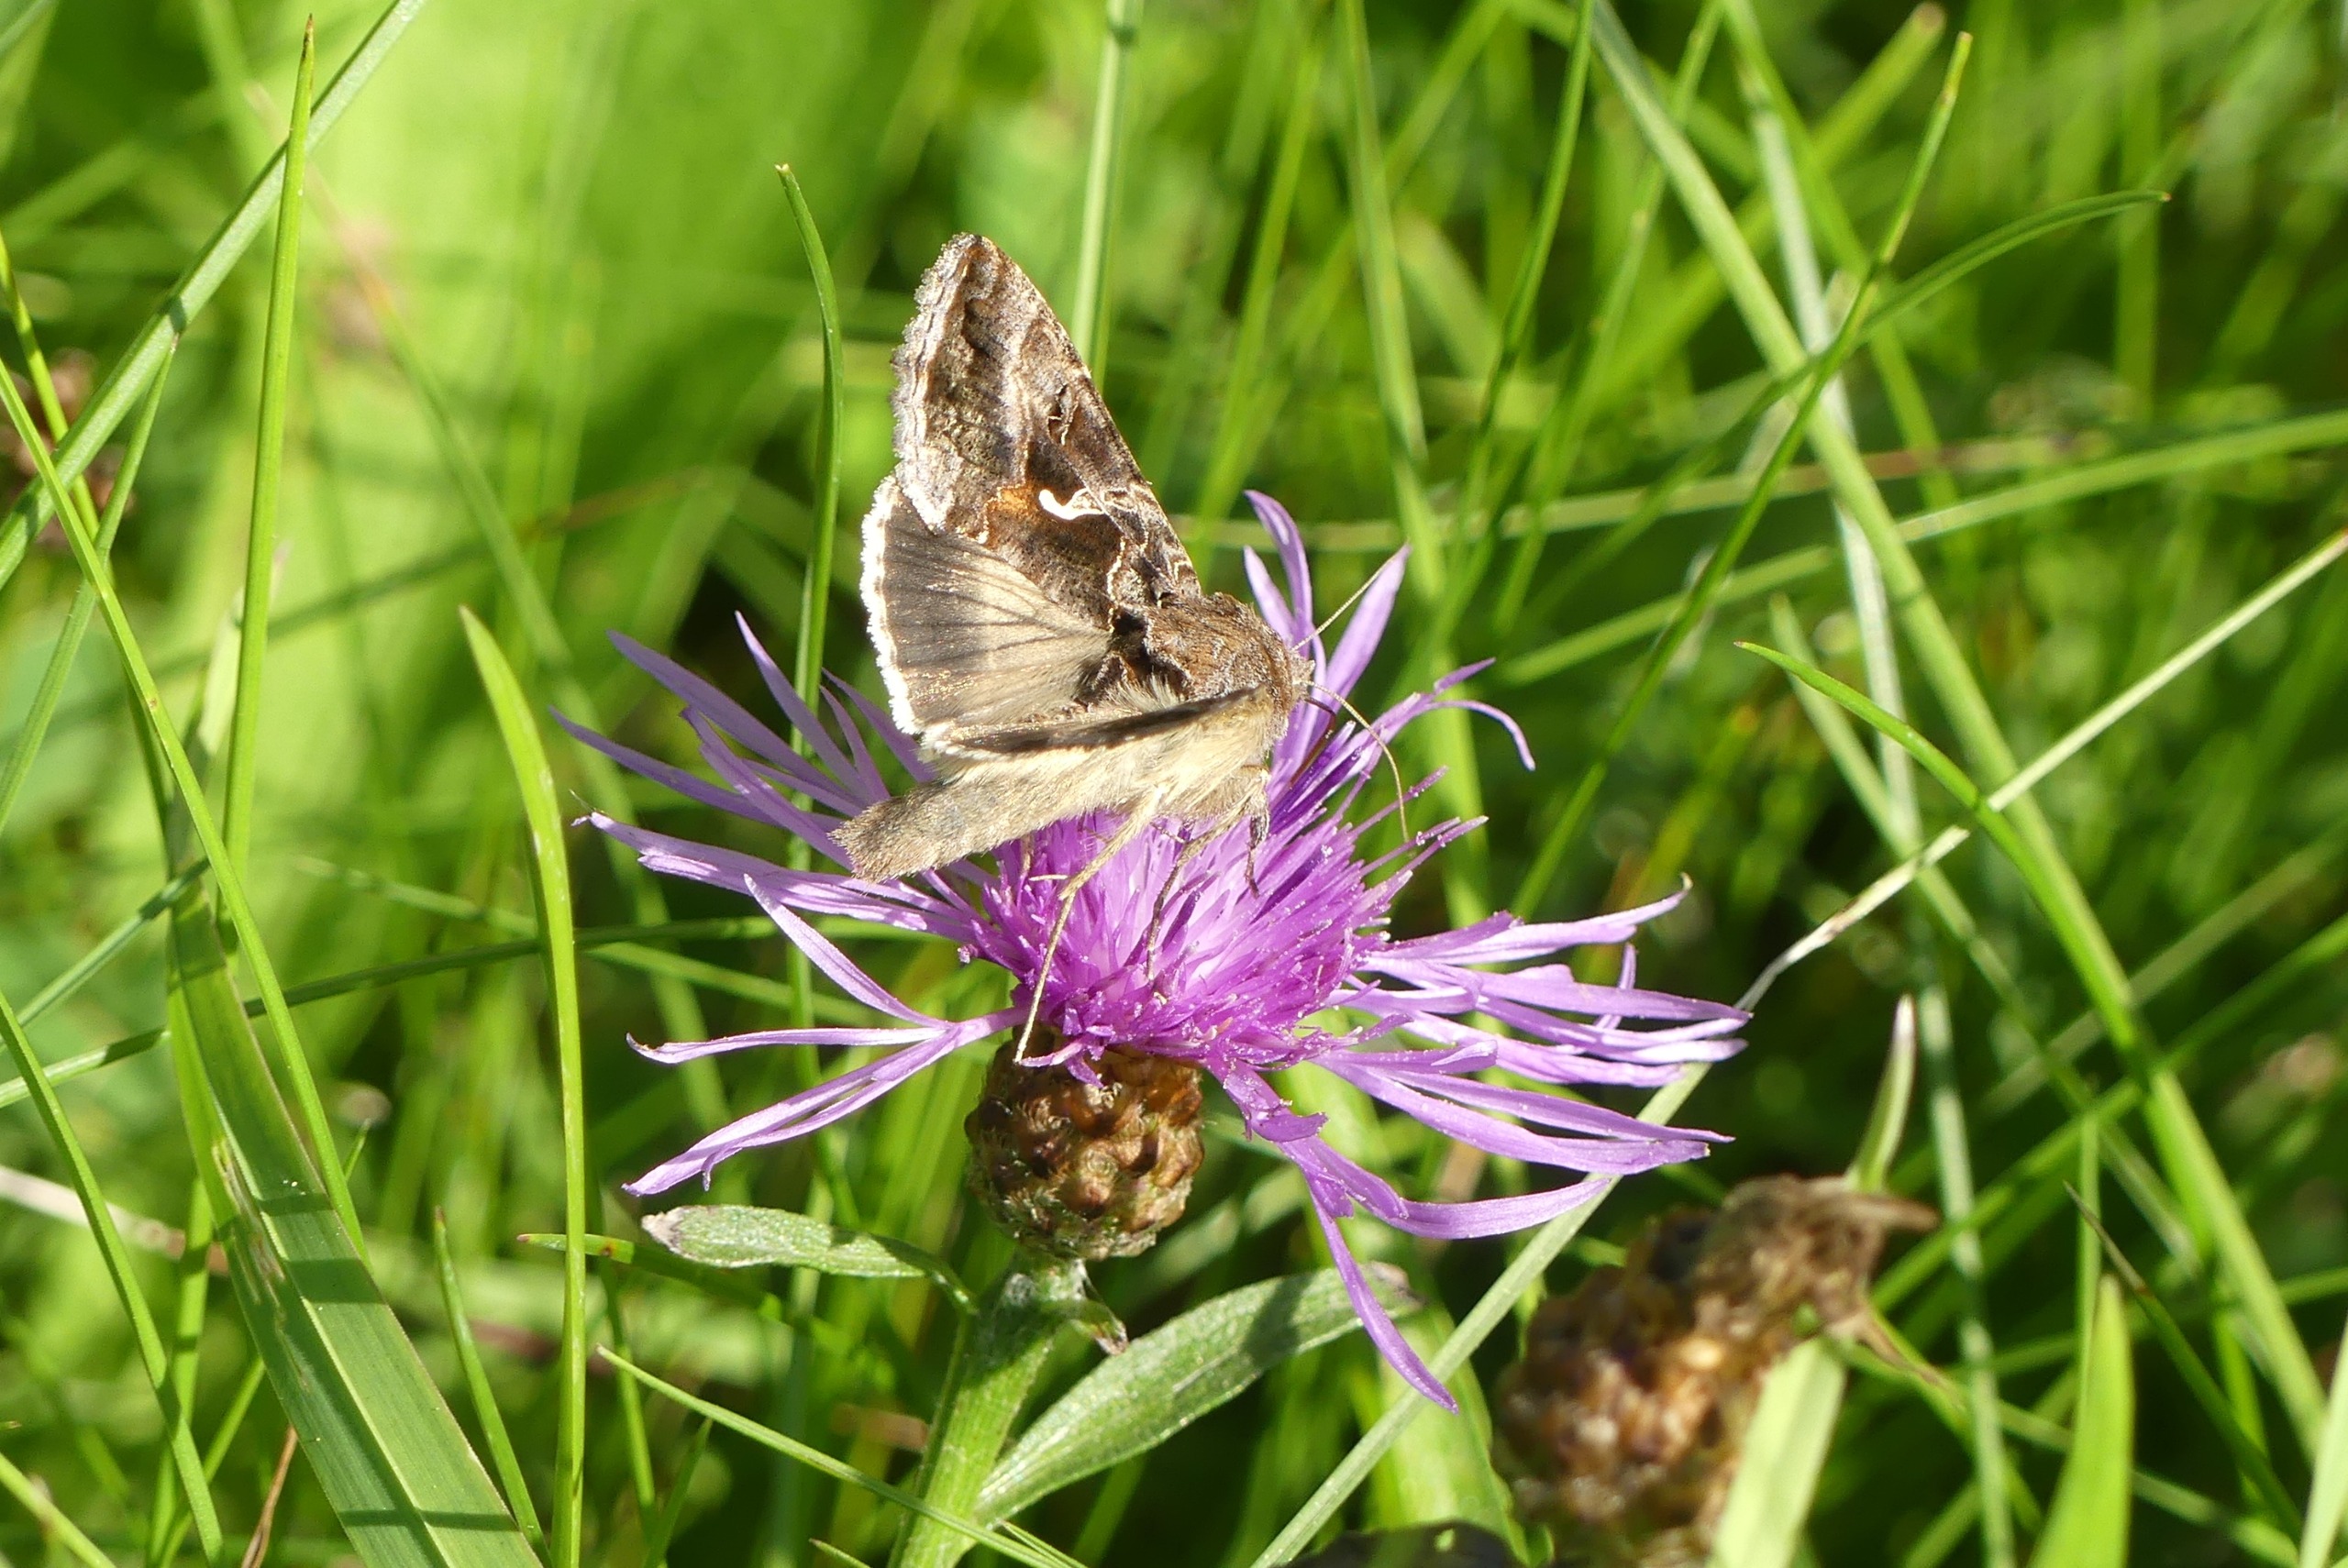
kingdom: Animalia
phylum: Arthropoda
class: Insecta
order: Lepidoptera
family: Noctuidae
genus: Autographa
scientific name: Autographa gamma
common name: Gammaugle
